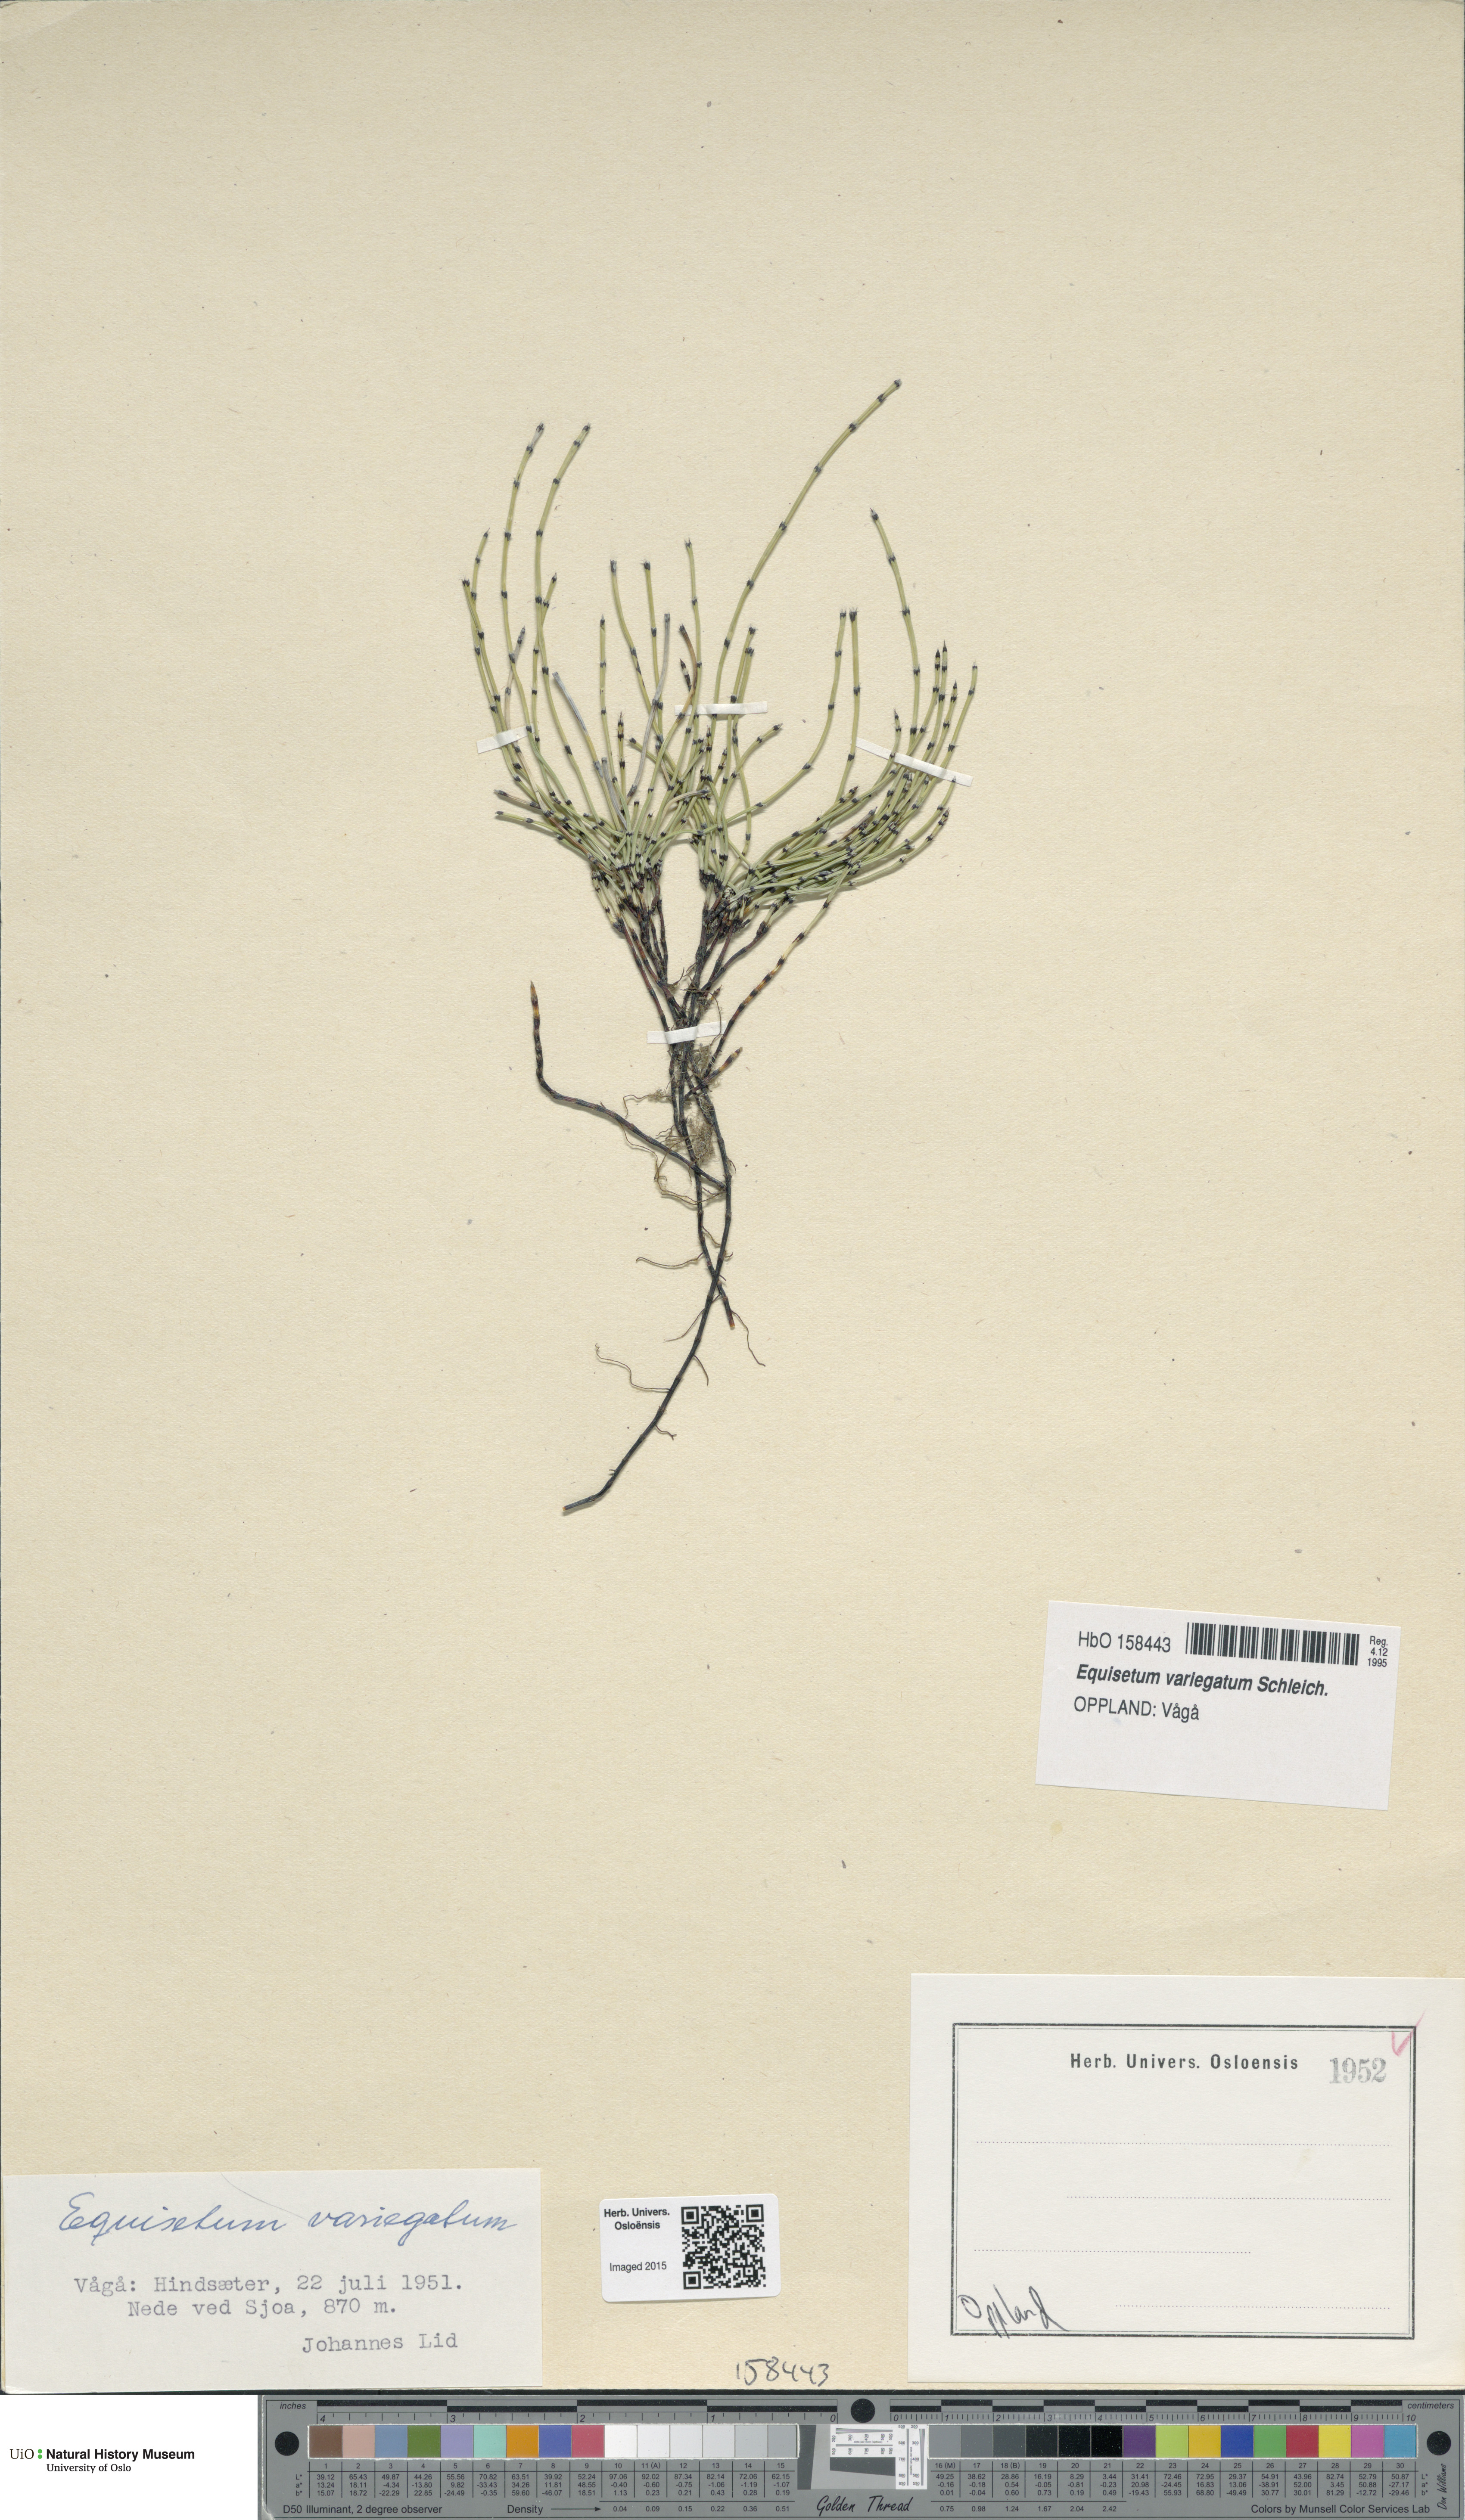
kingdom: Plantae
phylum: Tracheophyta
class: Polypodiopsida
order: Equisetales
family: Equisetaceae
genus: Equisetum
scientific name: Equisetum variegatum
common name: Variegated horsetail
